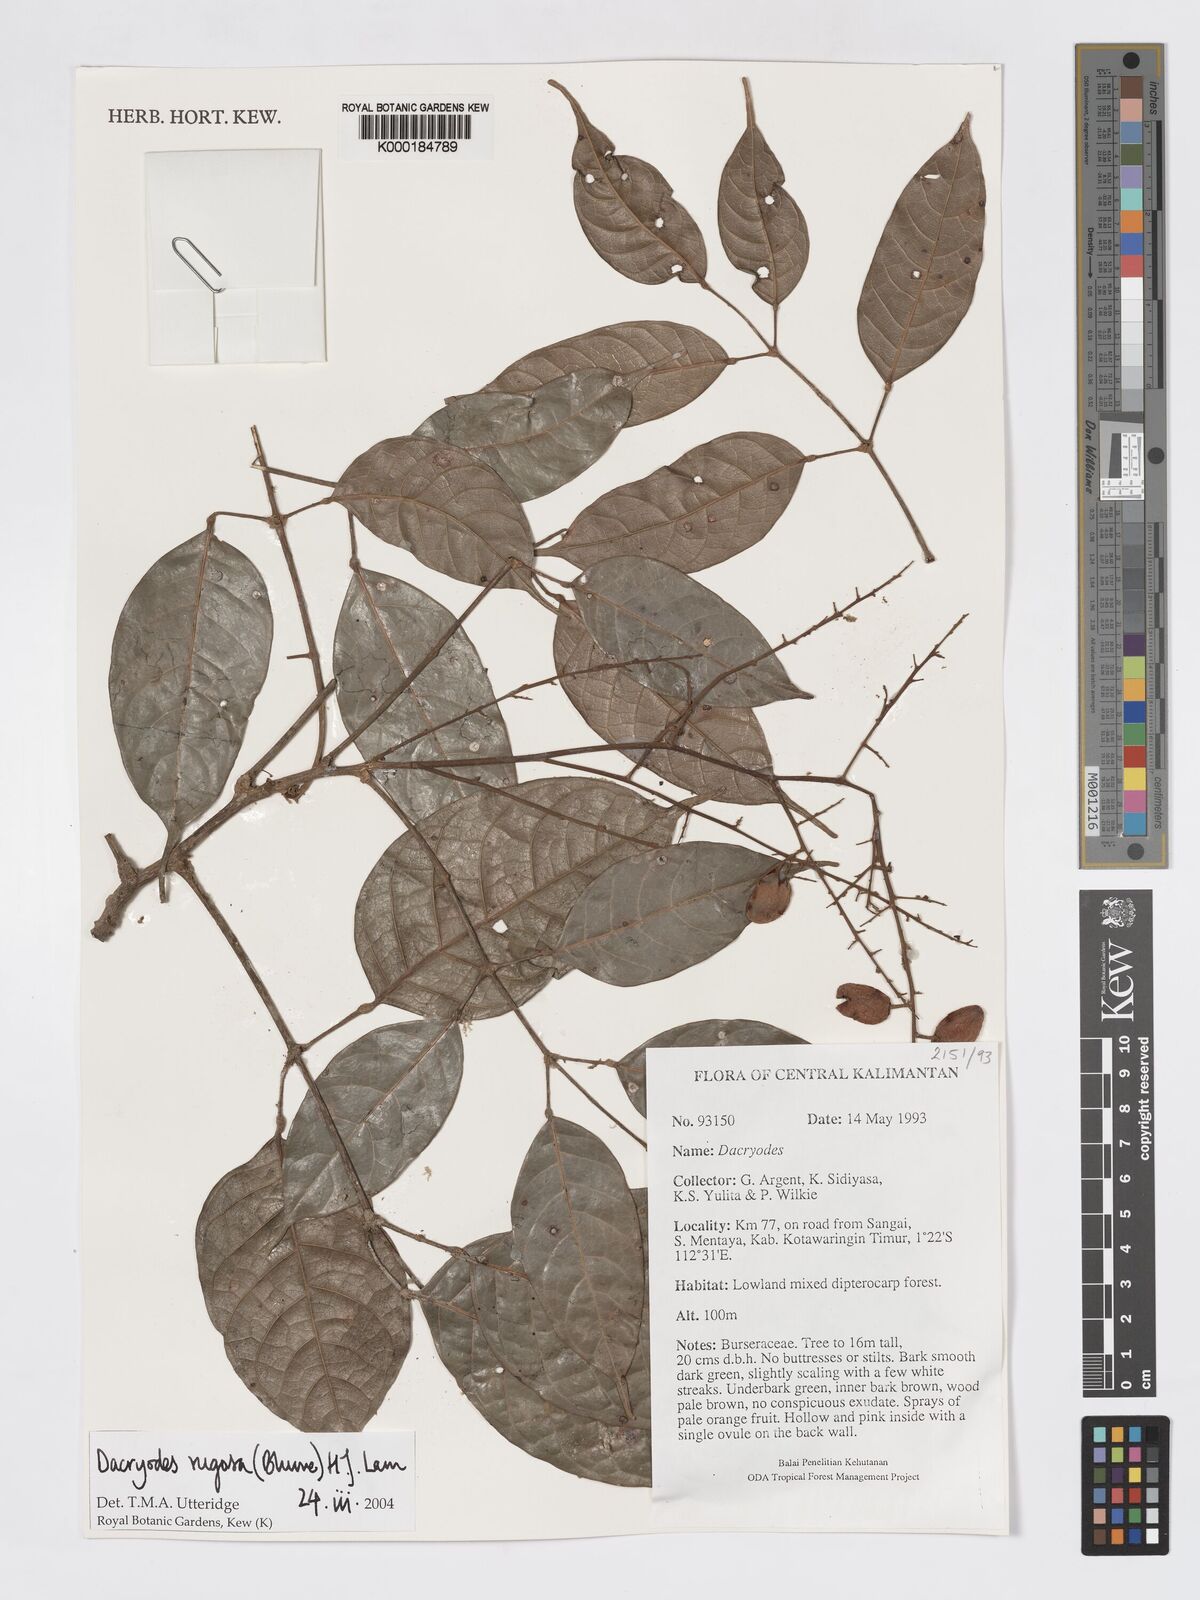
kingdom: Plantae
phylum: Tracheophyta
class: Magnoliopsida
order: Sapindales
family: Burseraceae
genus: Dacryodes
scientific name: Dacryodes rugosa
